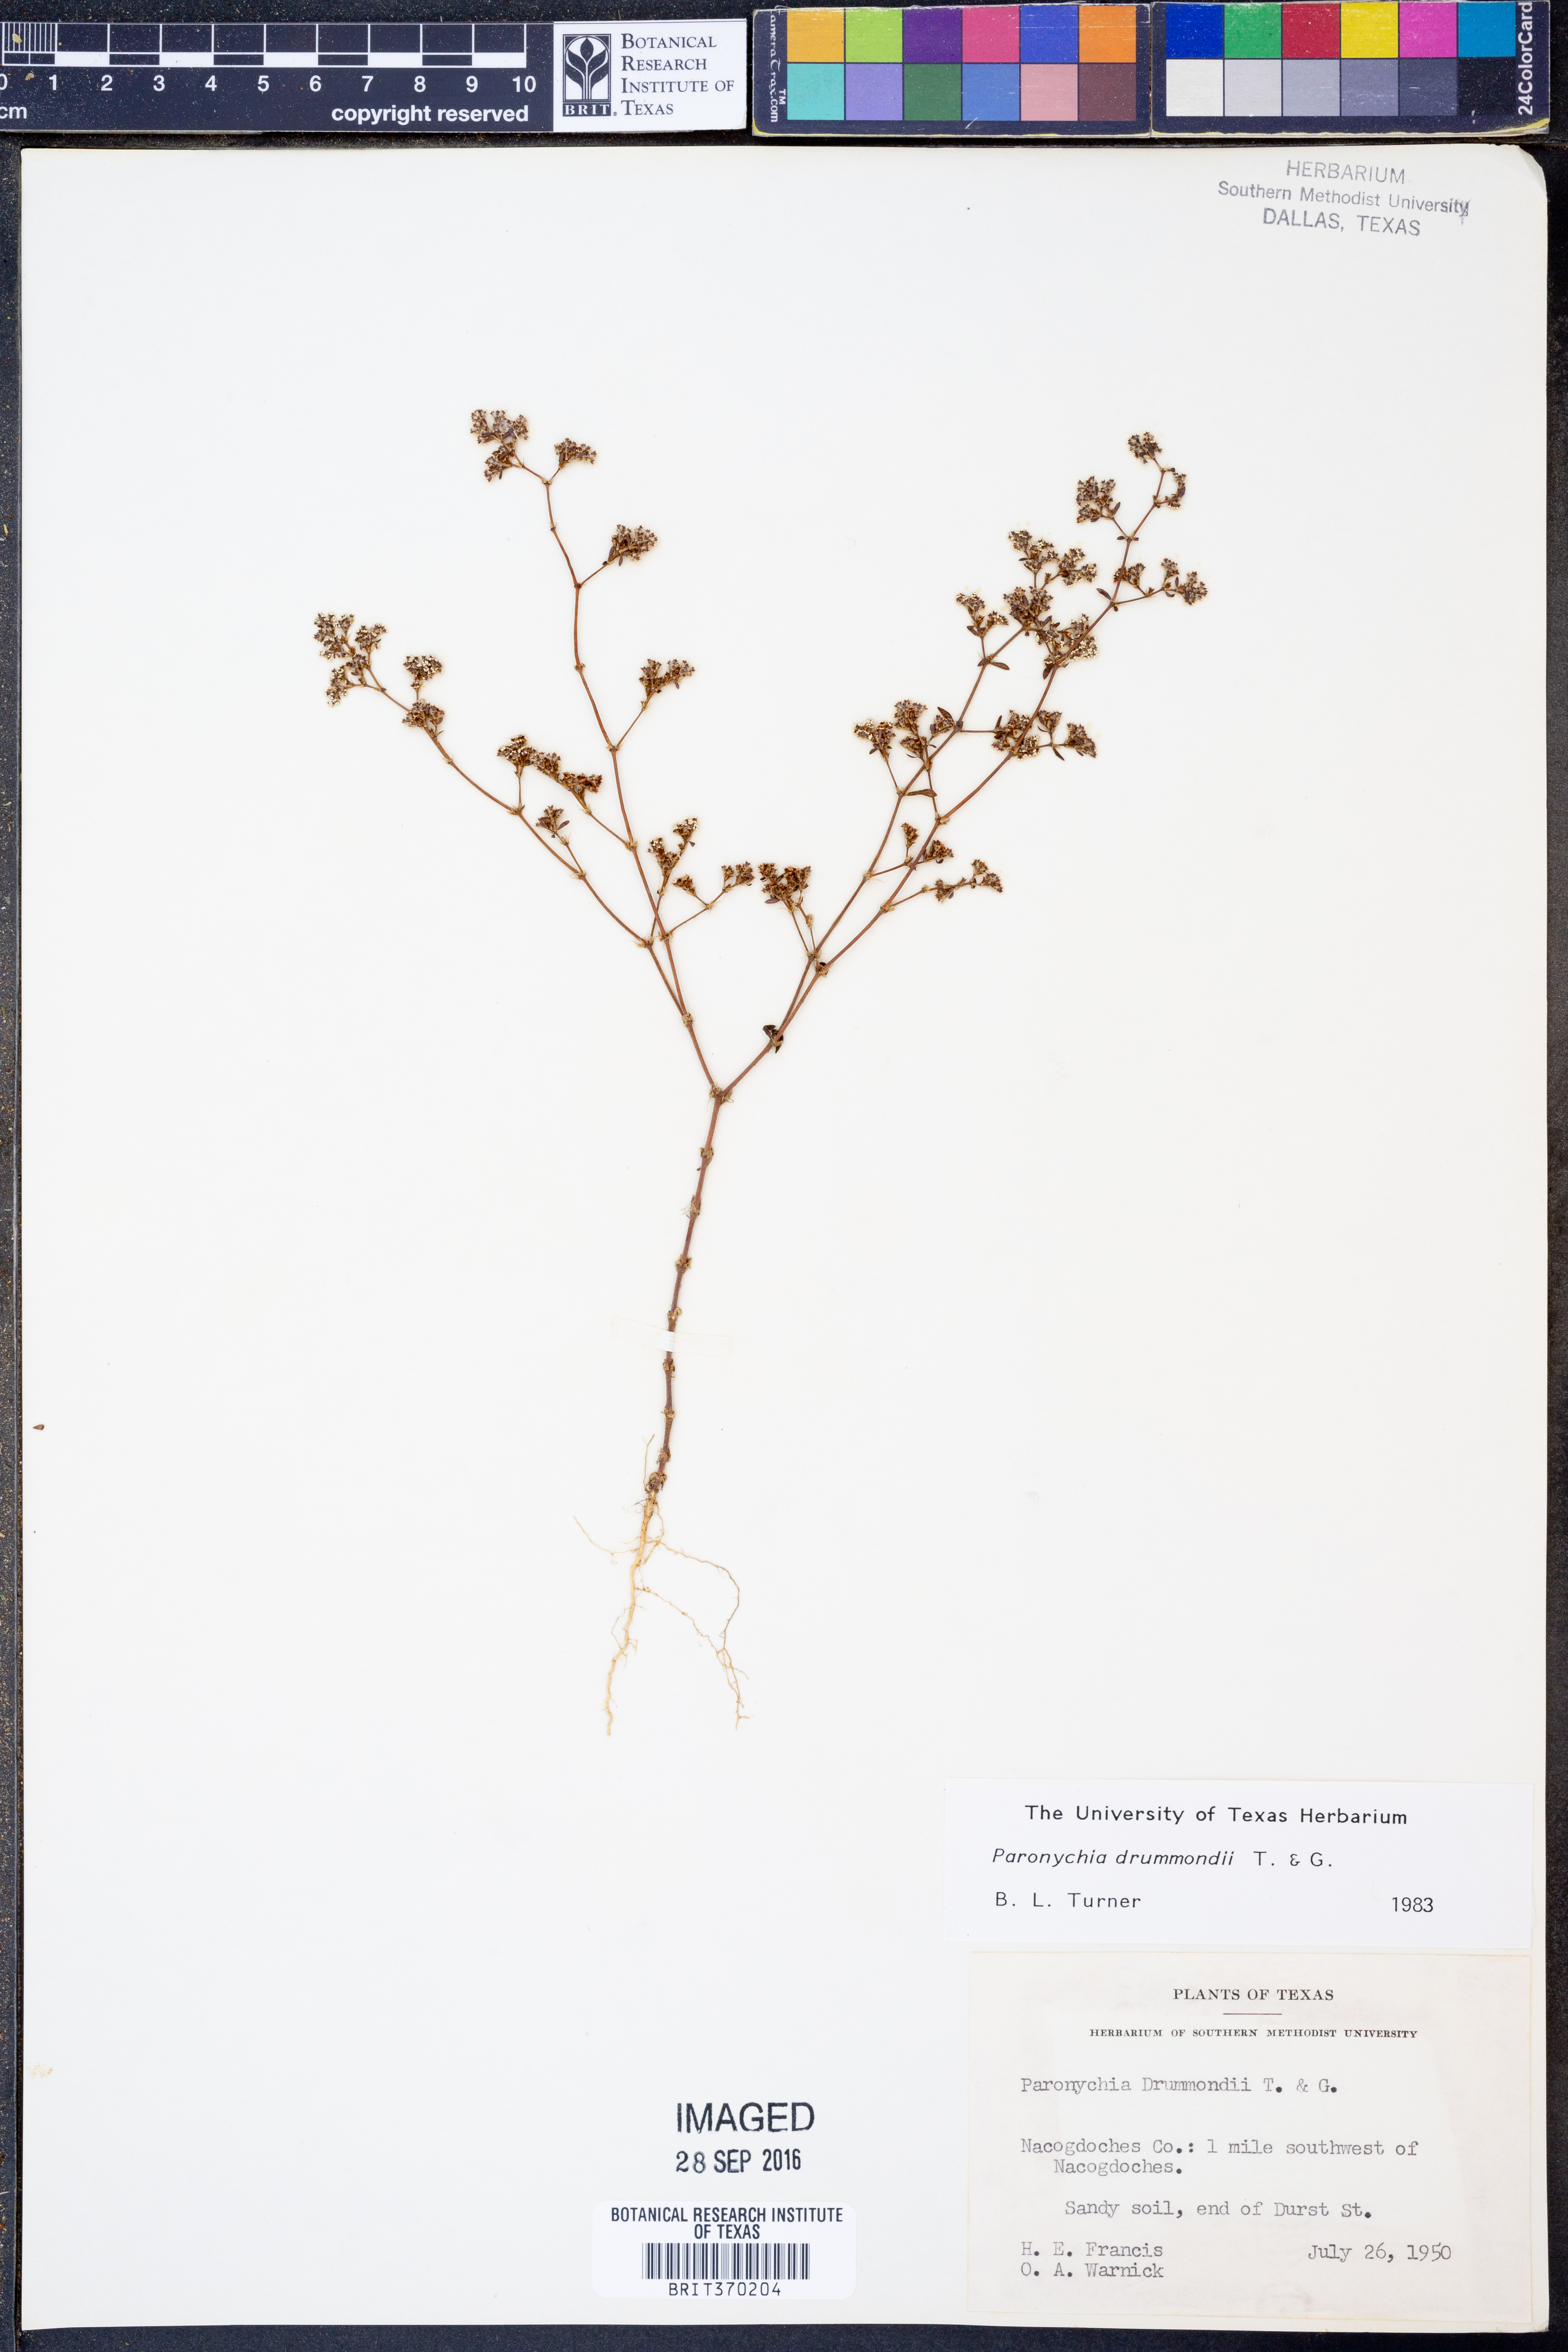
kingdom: Plantae
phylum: Tracheophyta
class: Magnoliopsida
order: Caryophyllales
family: Caryophyllaceae
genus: Paronychia
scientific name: Paronychia drummondii
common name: Drummond's nailwort
